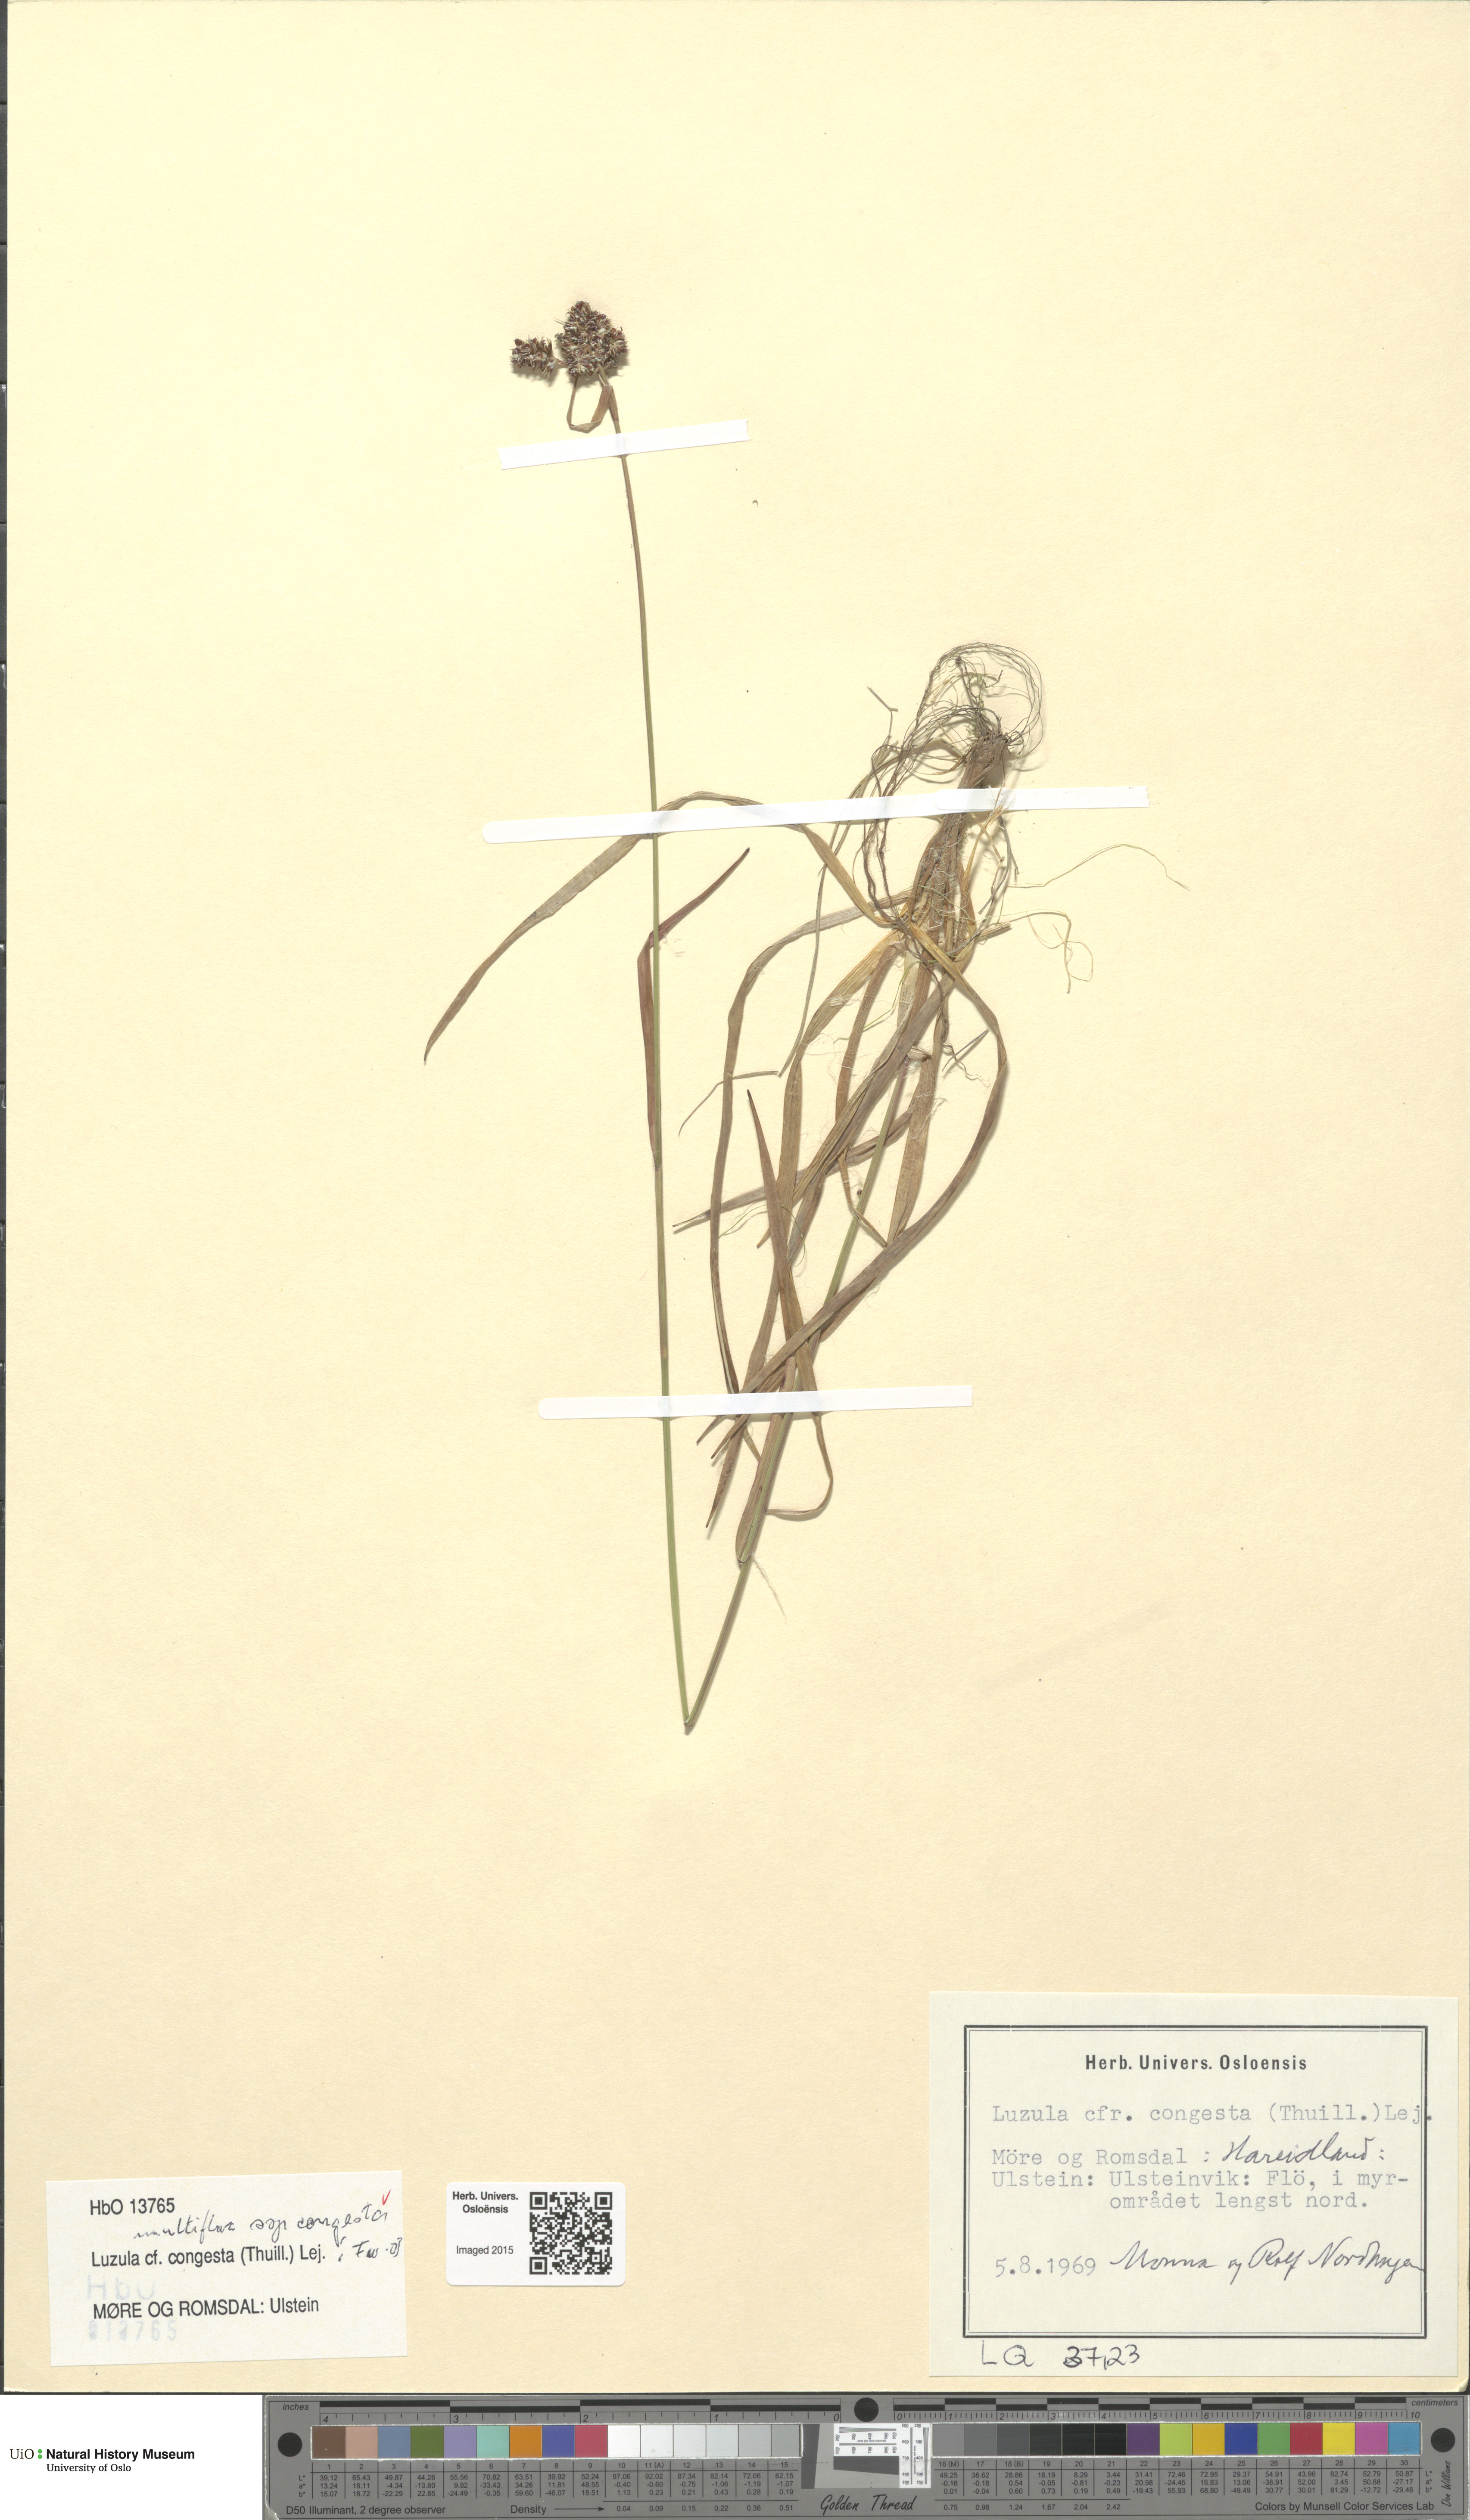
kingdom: Plantae
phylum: Tracheophyta
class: Liliopsida
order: Poales
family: Juncaceae
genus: Luzula
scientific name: Luzula congesta
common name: Heath woodrush
